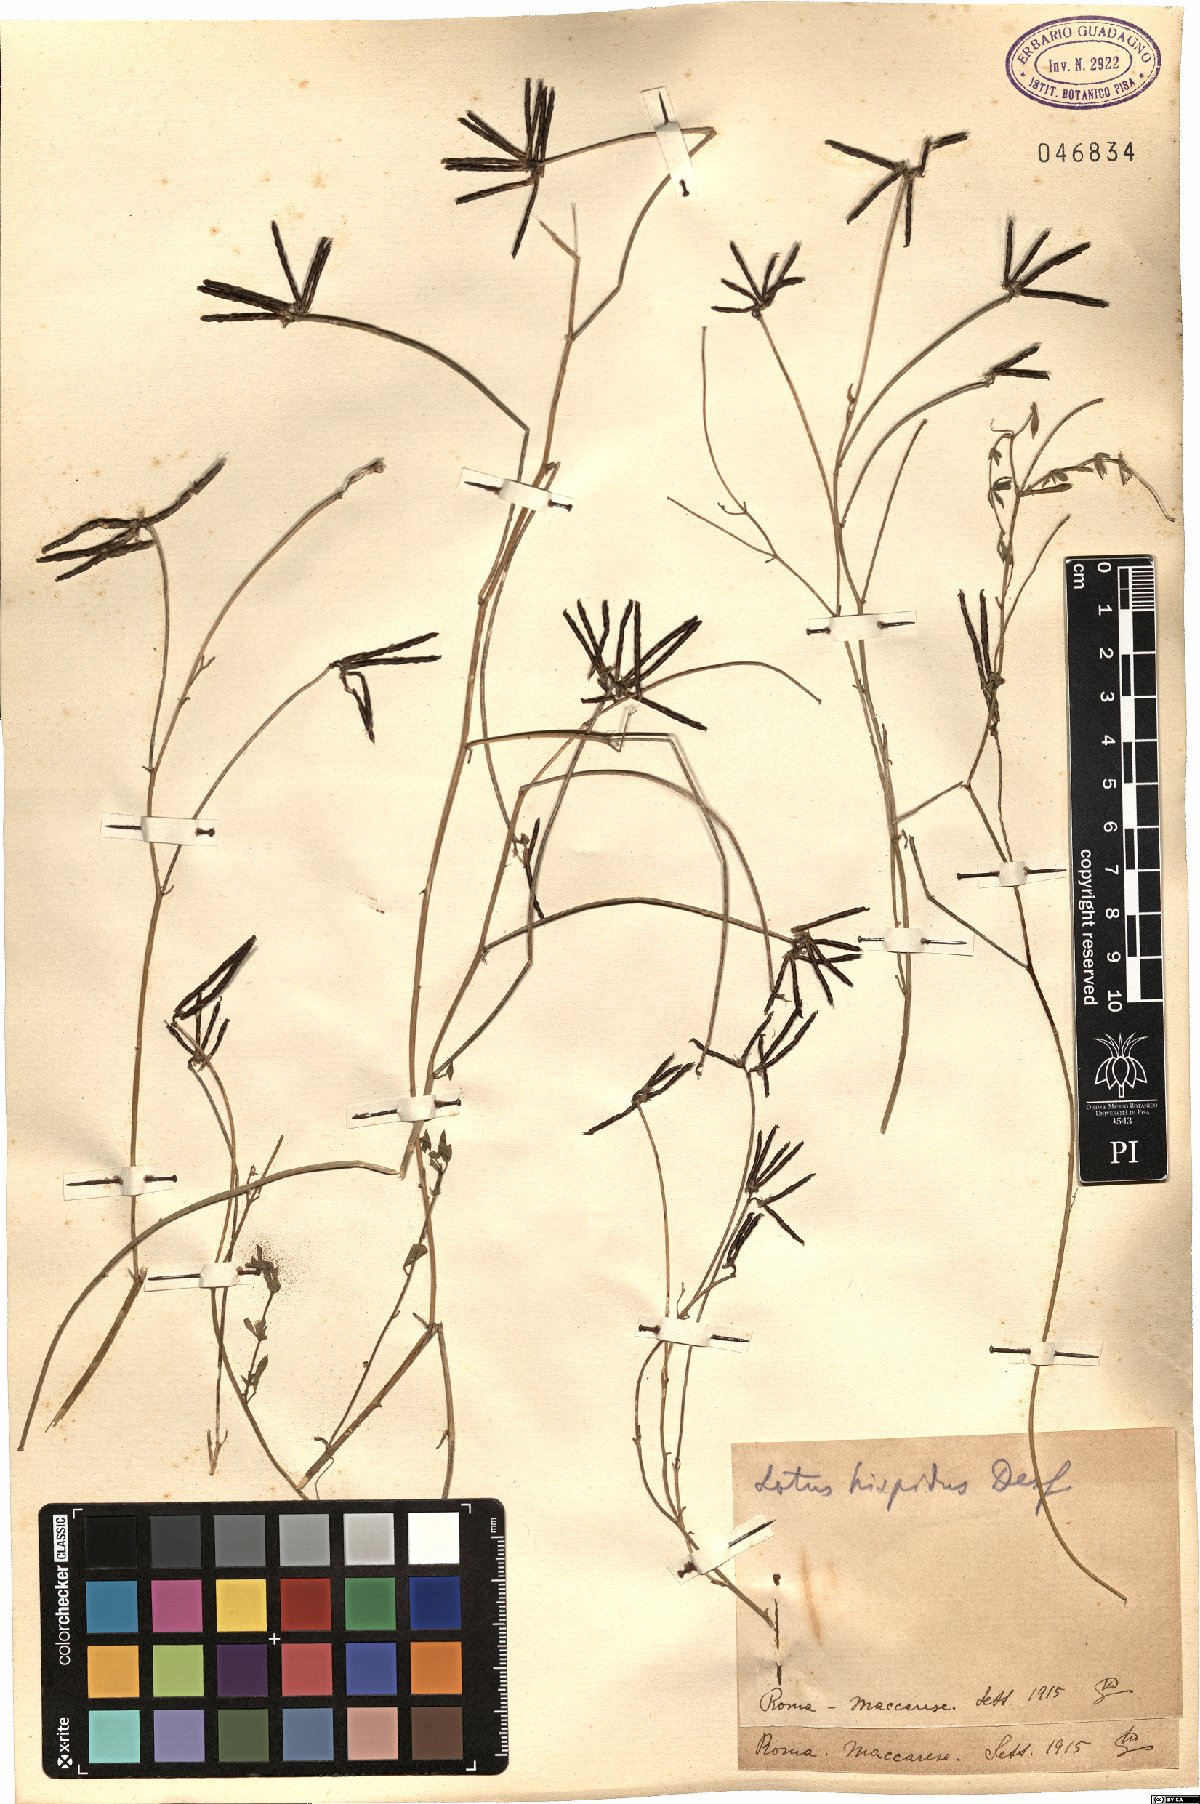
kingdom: Plantae
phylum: Tracheophyta
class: Magnoliopsida
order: Fabales
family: Fabaceae
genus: Lotus
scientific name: Lotus parviflorus
